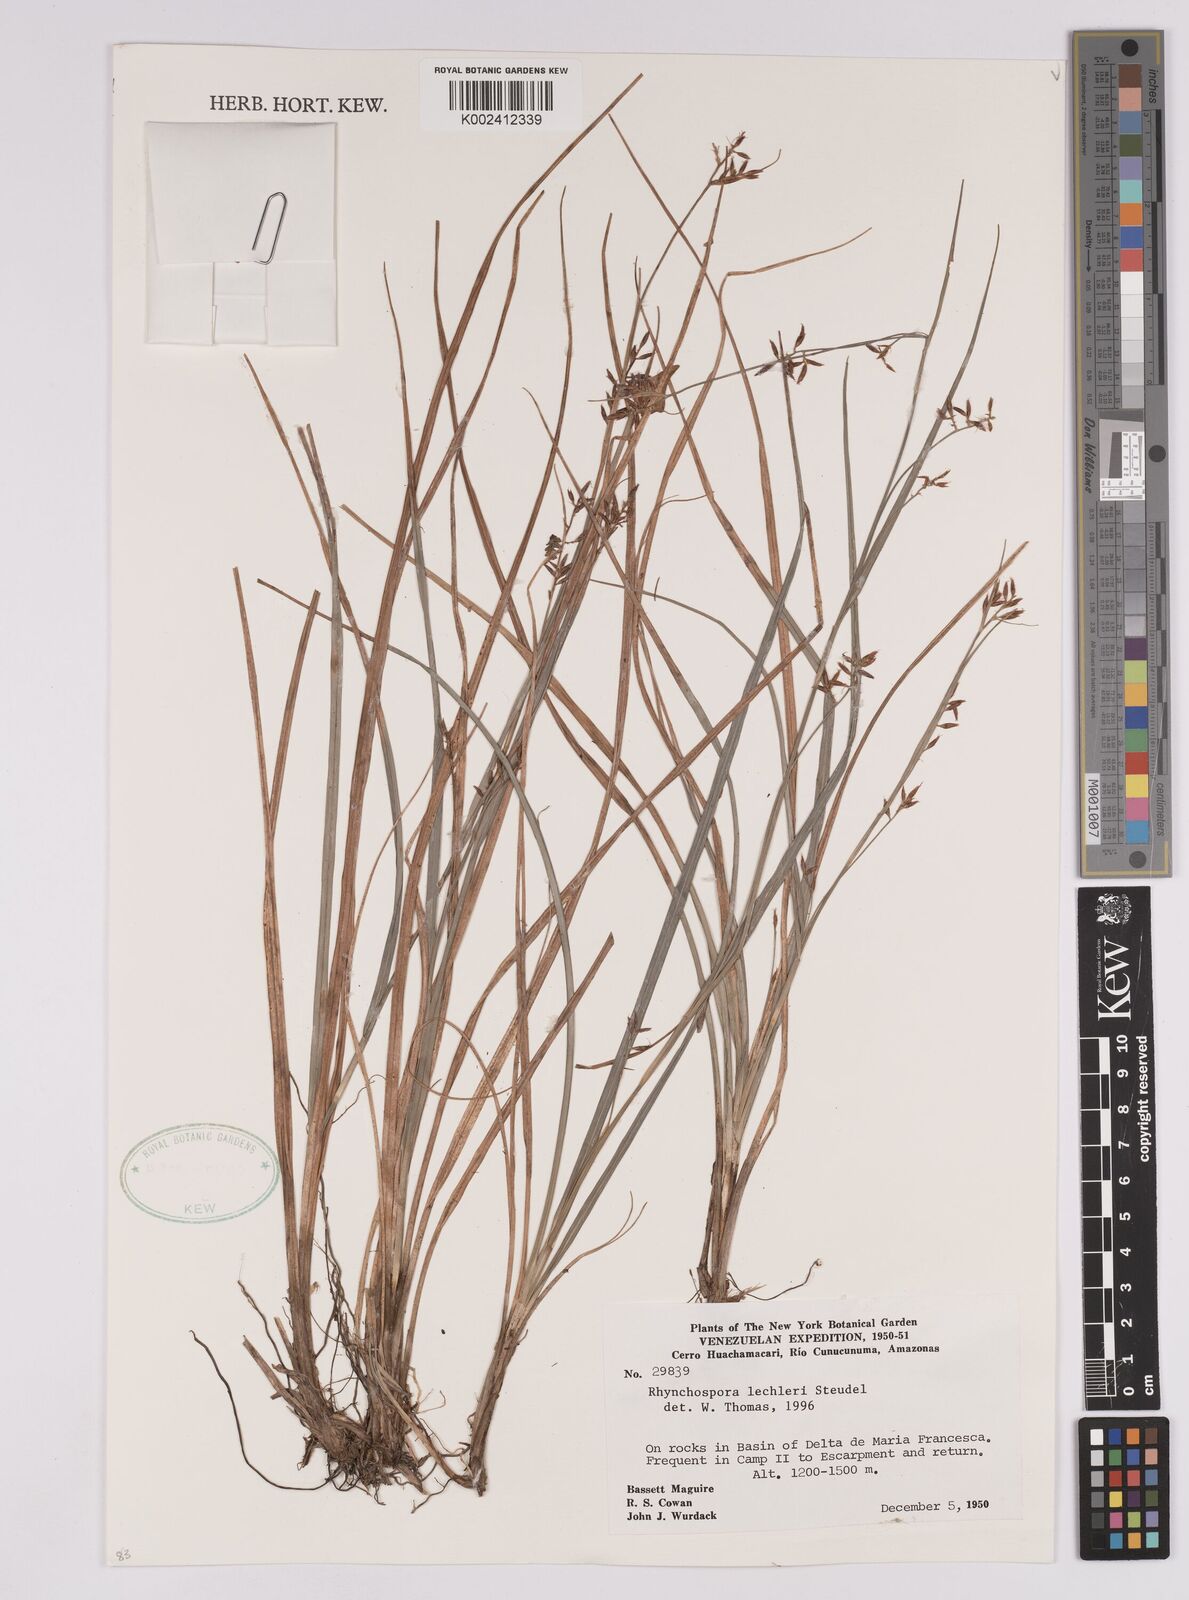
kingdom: Plantae
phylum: Tracheophyta
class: Liliopsida
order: Poales
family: Cyperaceae
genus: Rhynchospora
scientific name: Rhynchospora
